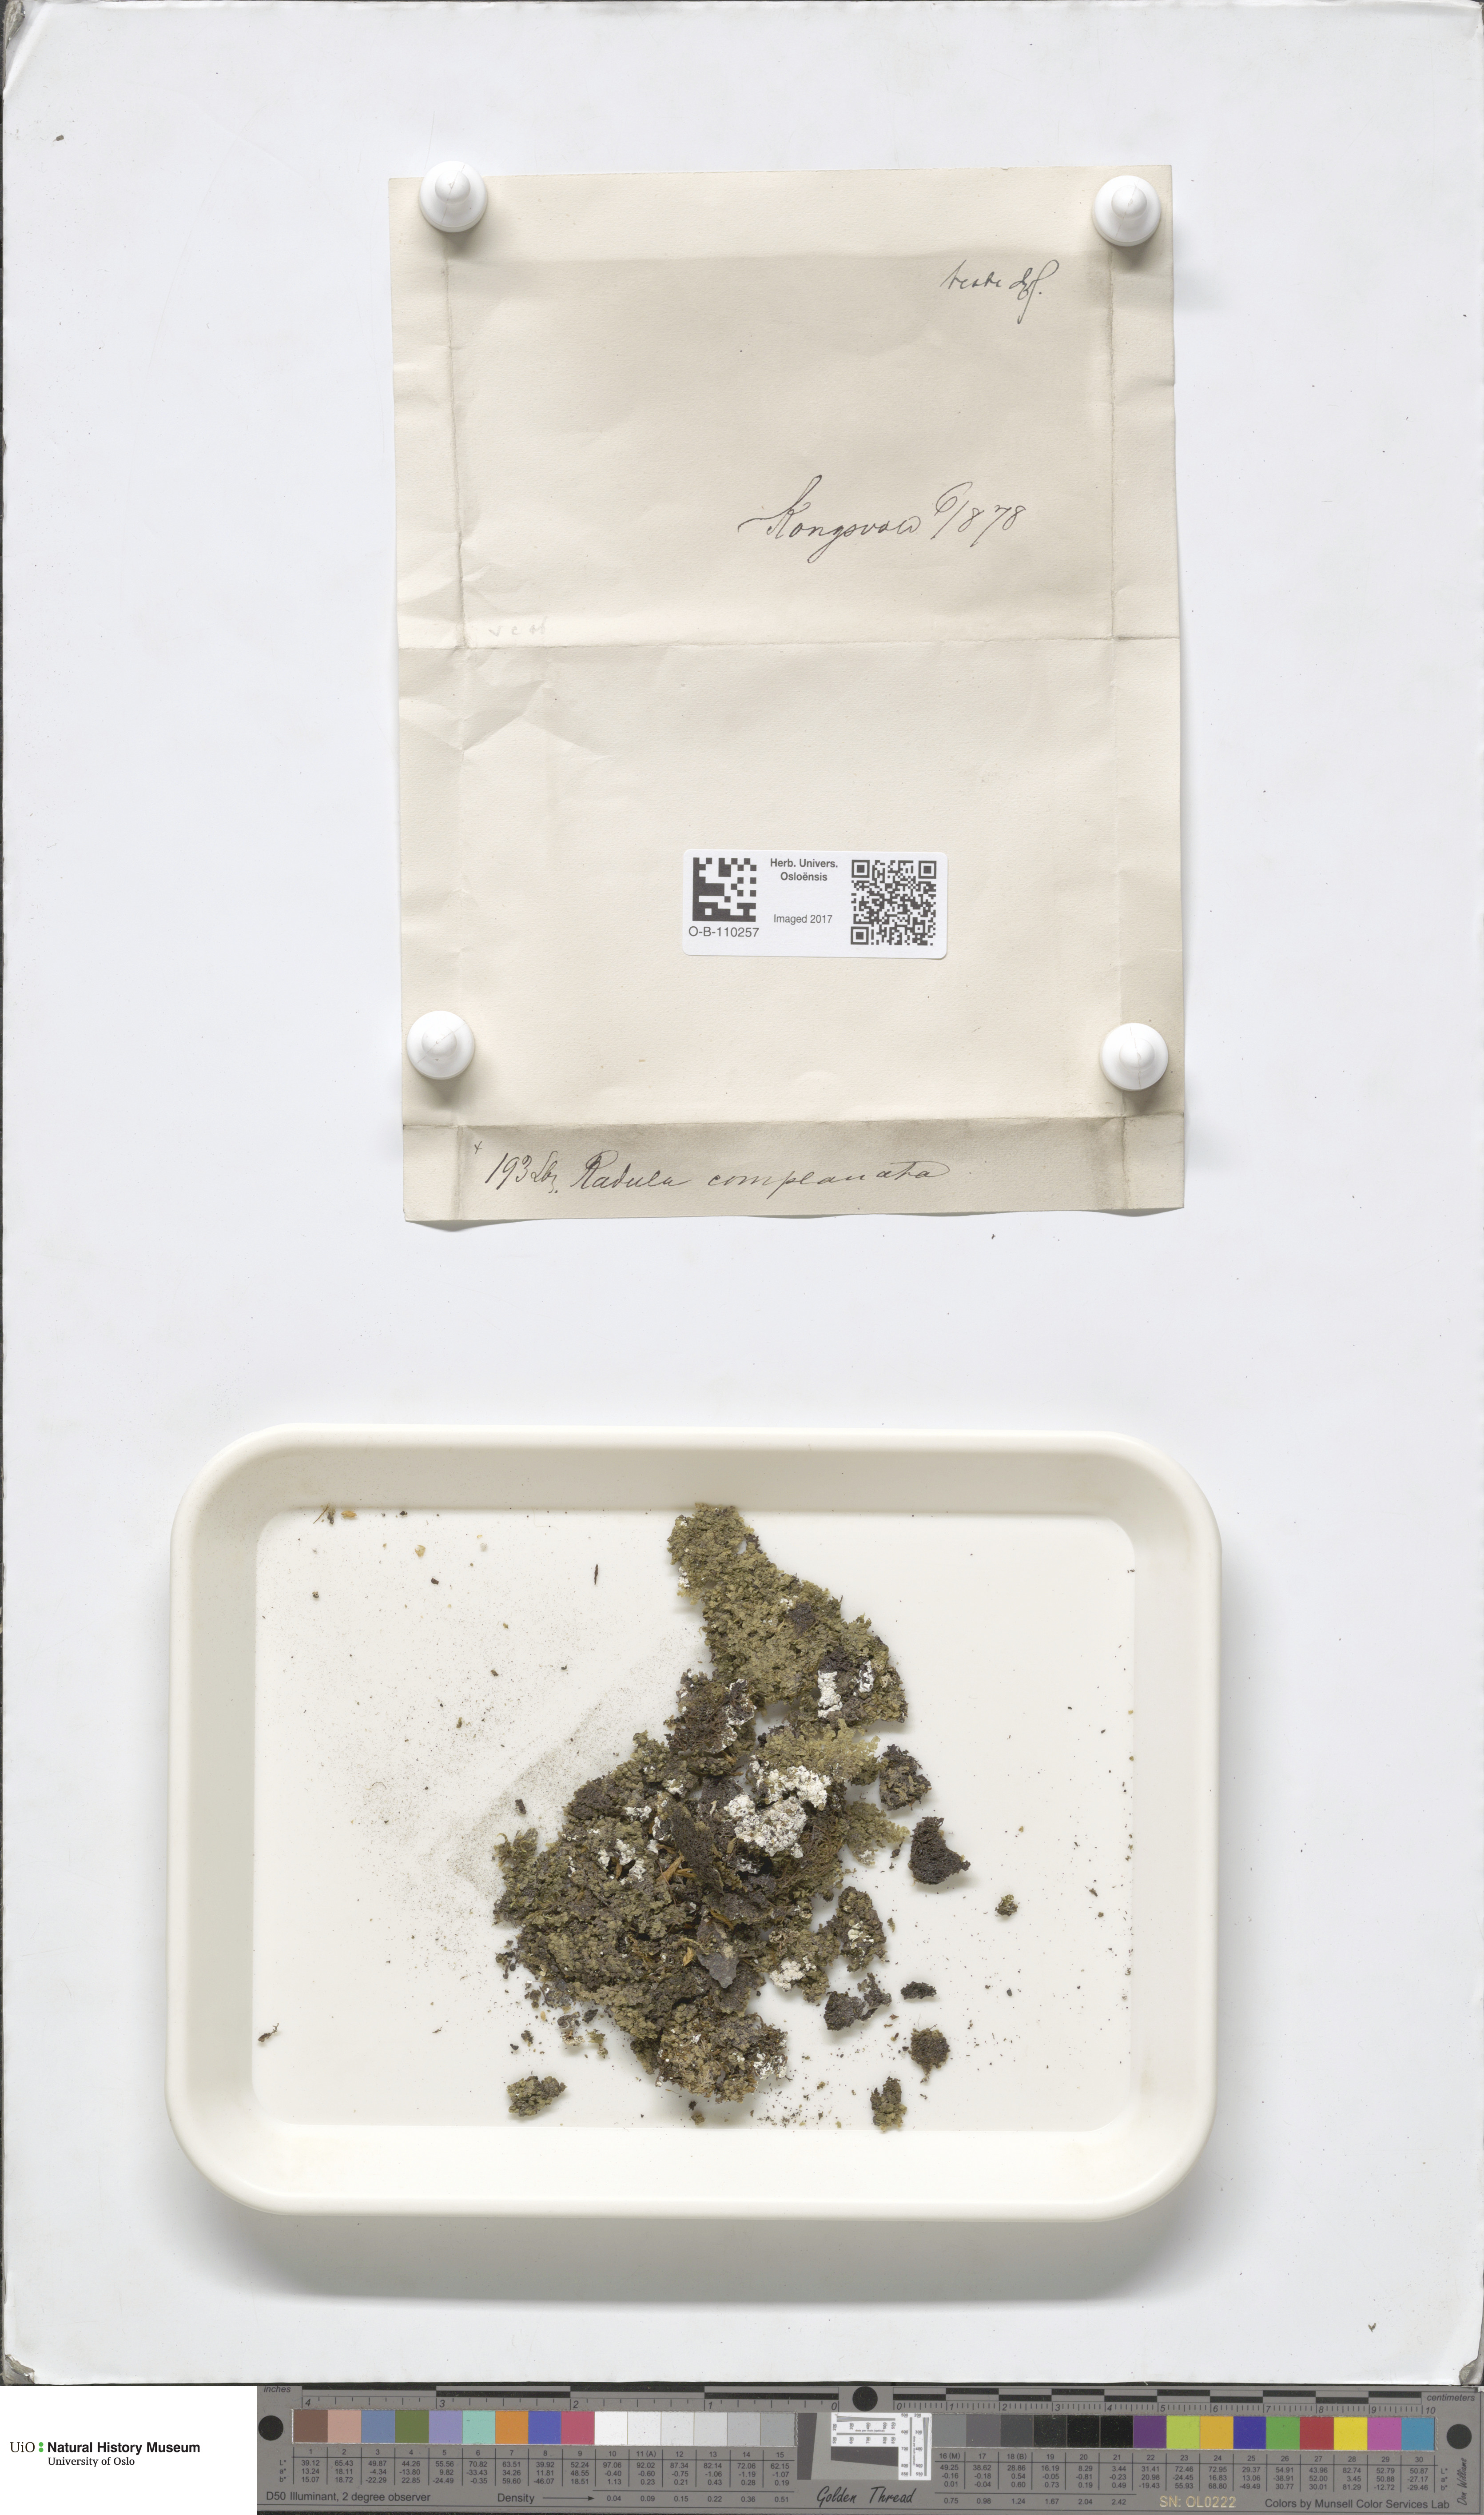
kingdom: Plantae
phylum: Marchantiophyta
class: Jungermanniopsida
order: Jungermanniales
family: Lophoziaceae
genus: Trilophozia
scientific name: Trilophozia quinquedentata
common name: Large notchwort
